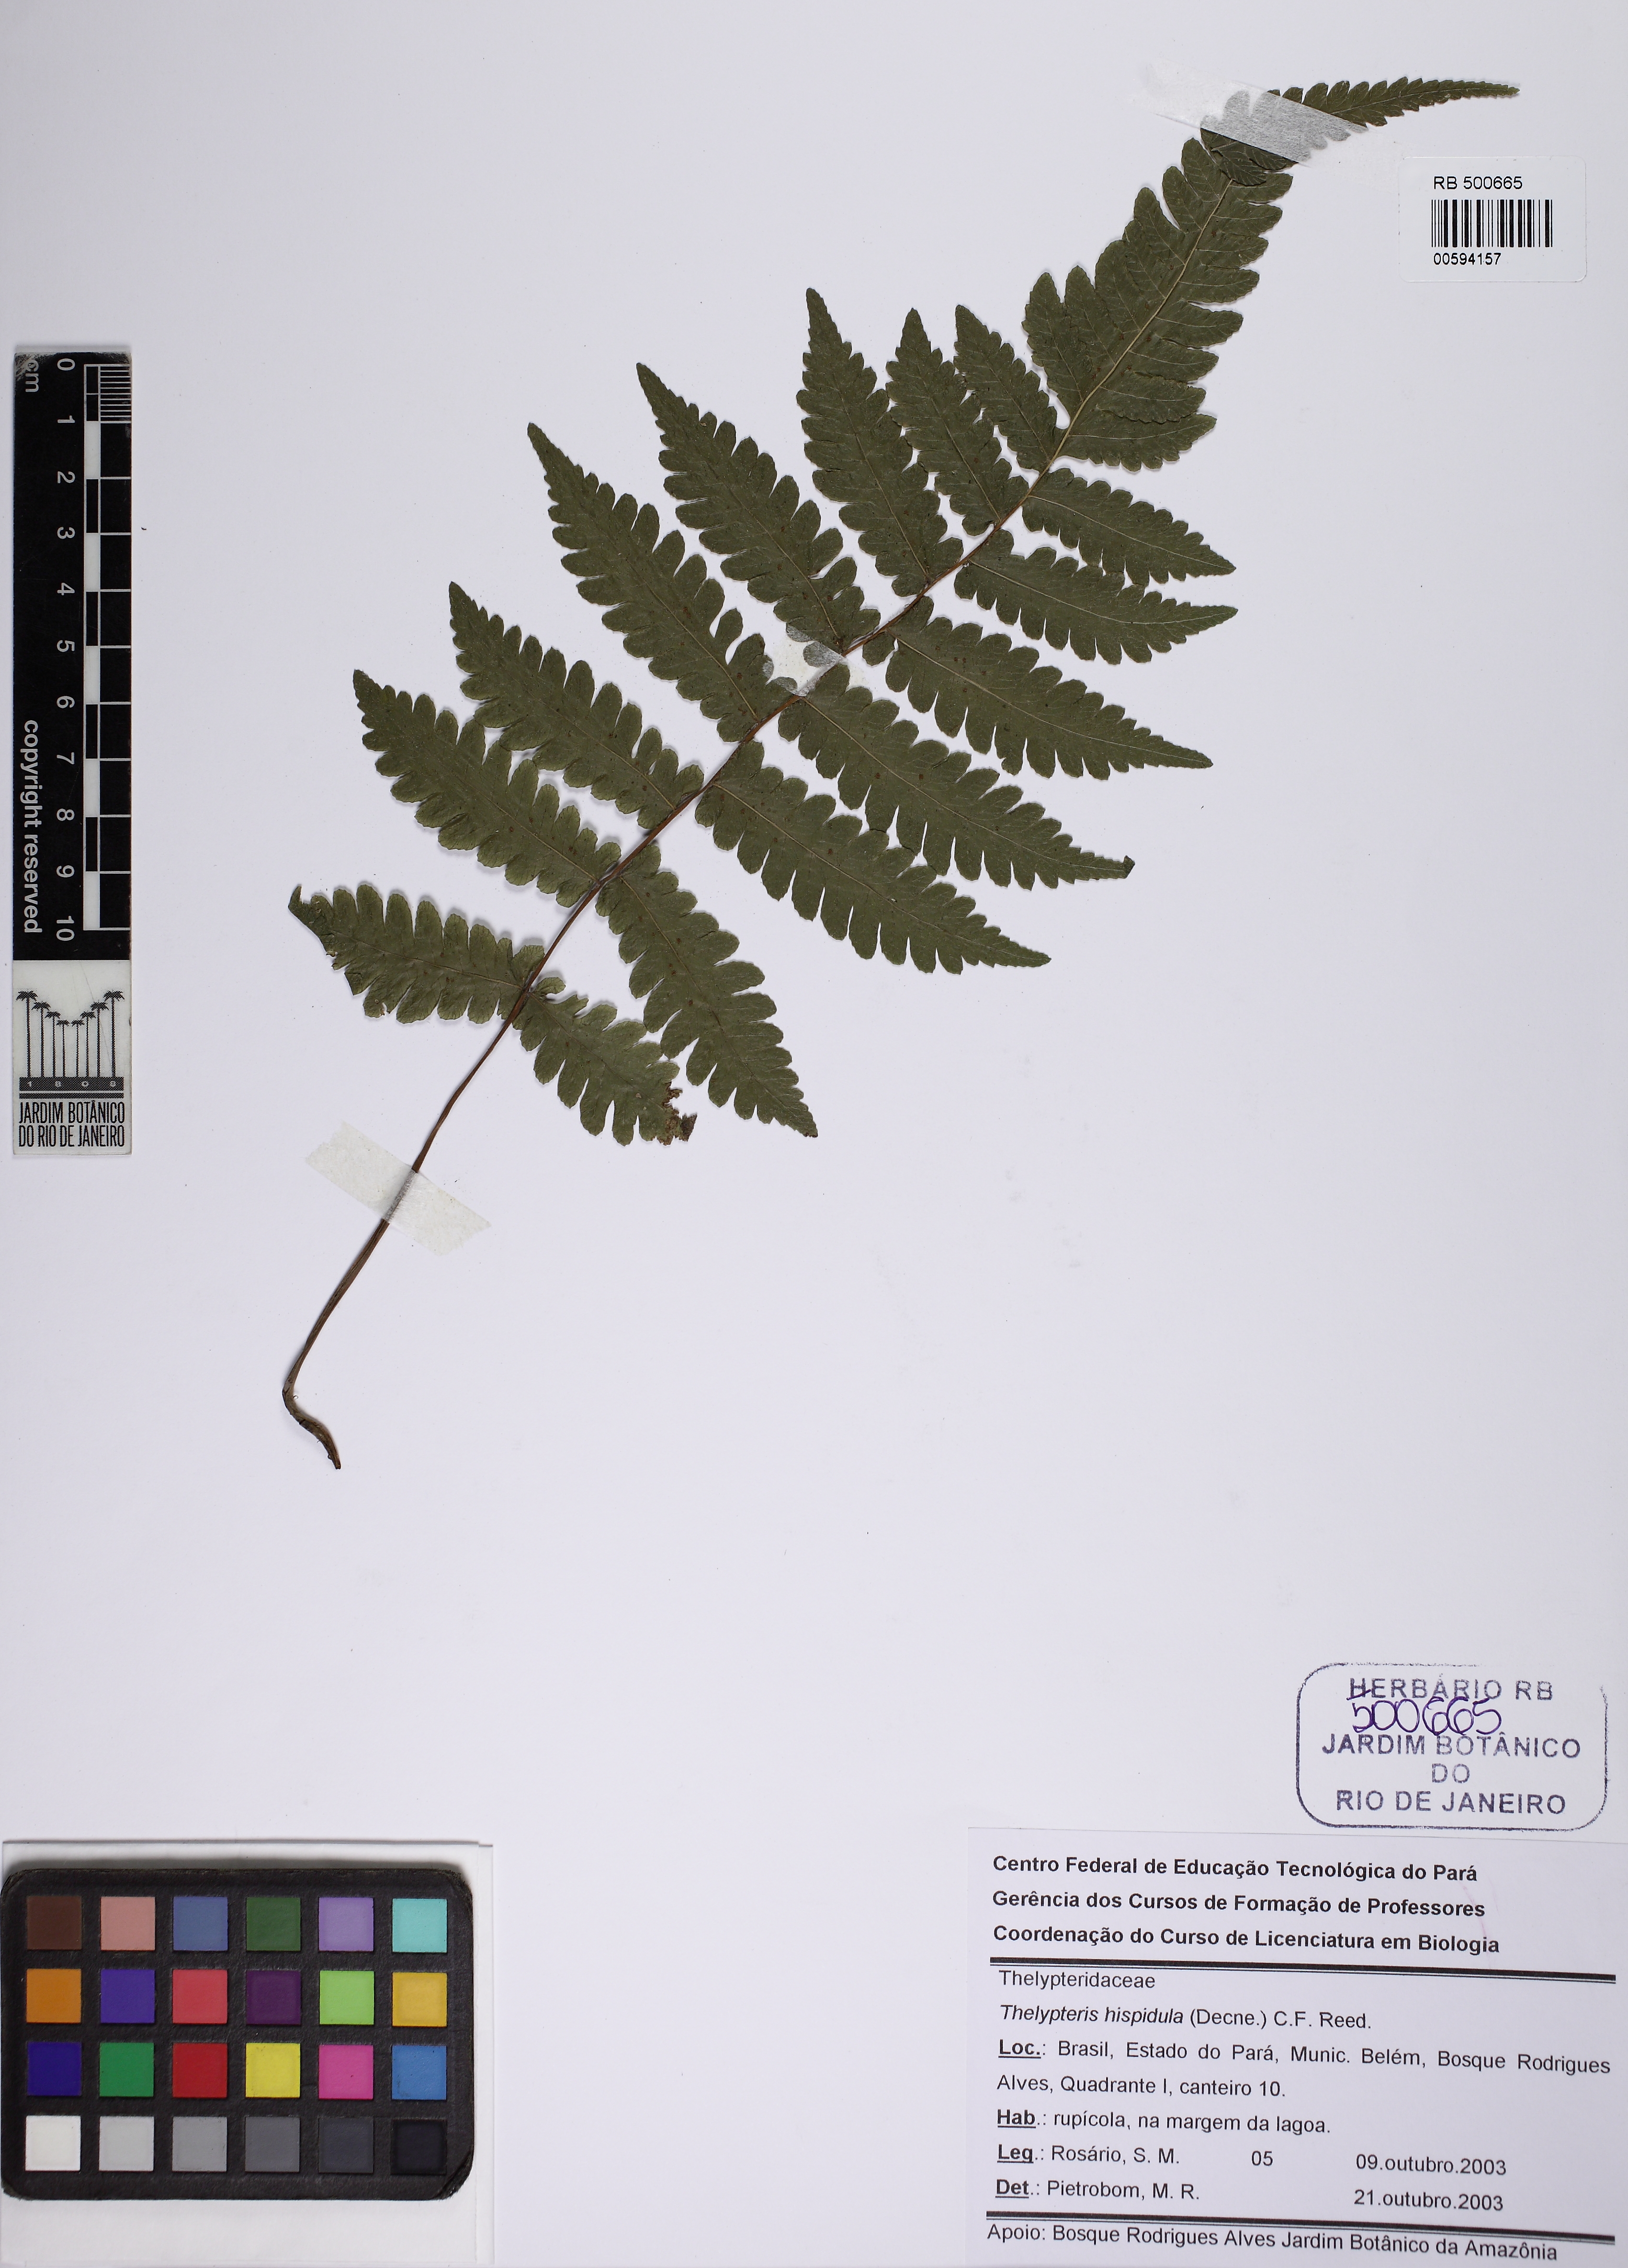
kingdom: Plantae
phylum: Tracheophyta
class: Polypodiopsida
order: Polypodiales
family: Thelypteridaceae
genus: Christella
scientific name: Christella hispidula
